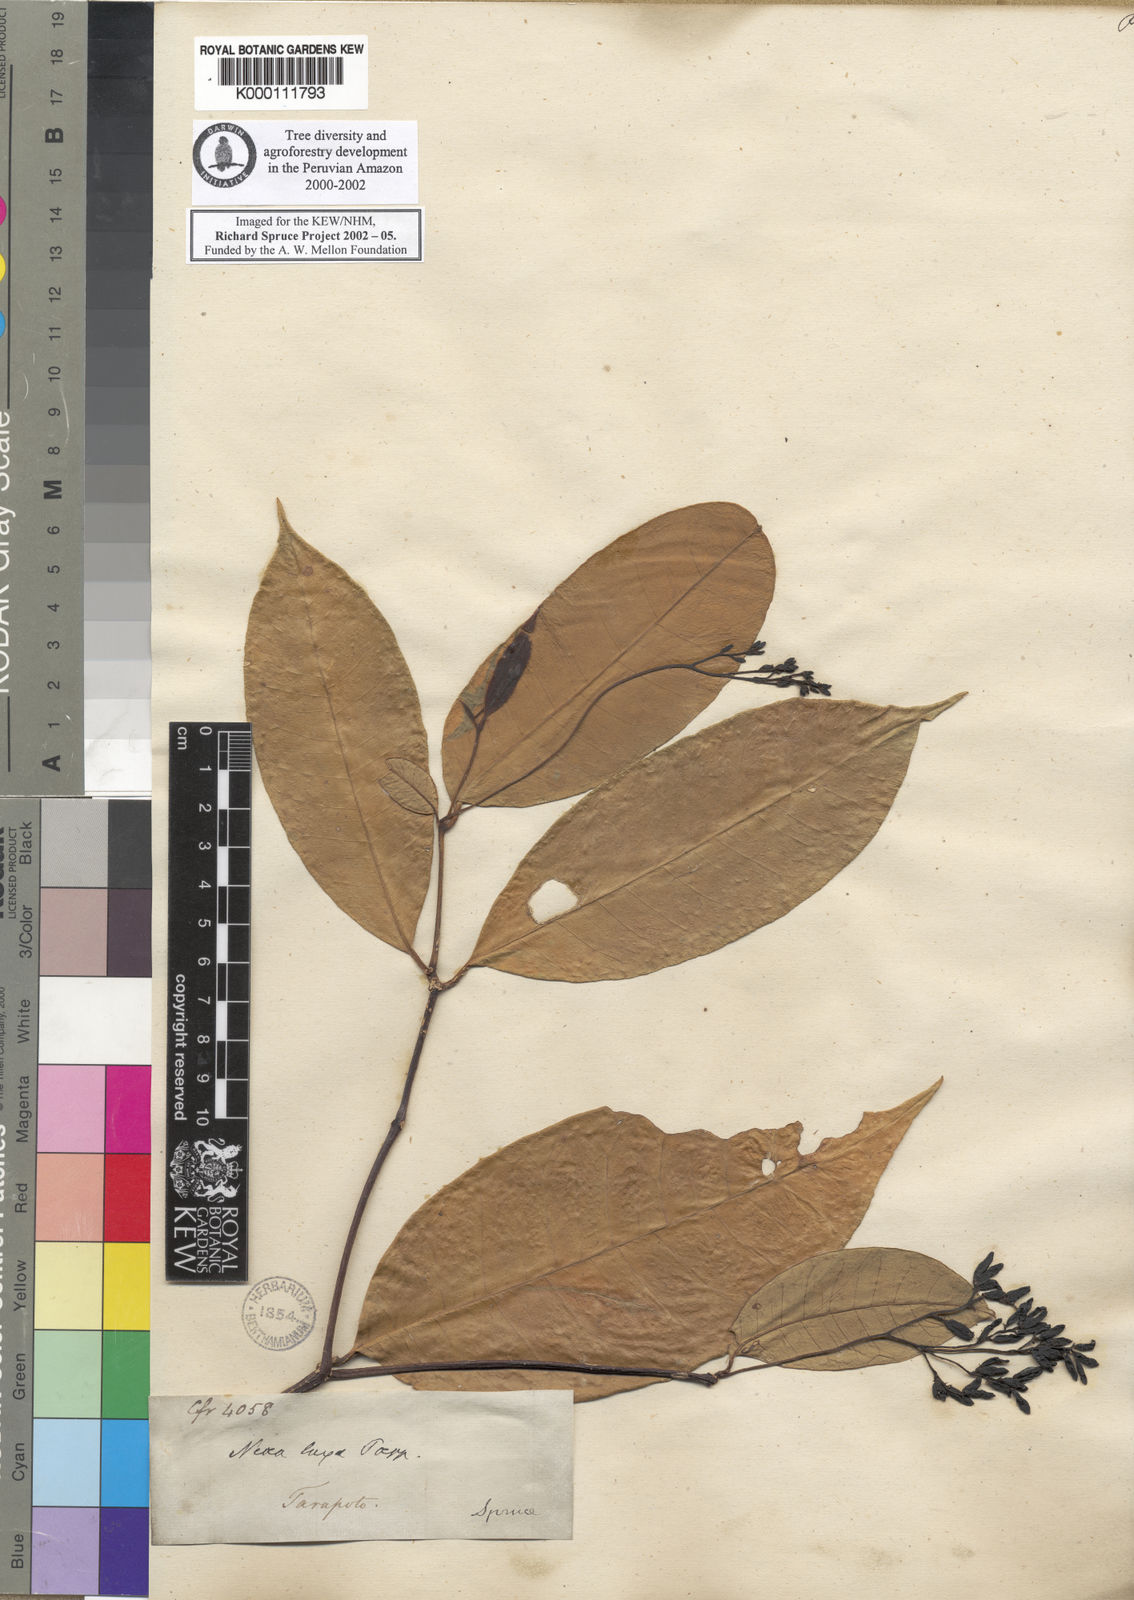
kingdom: Plantae
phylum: Tracheophyta
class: Magnoliopsida
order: Caryophyllales
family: Nyctaginaceae
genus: Neea
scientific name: Neea laxa
